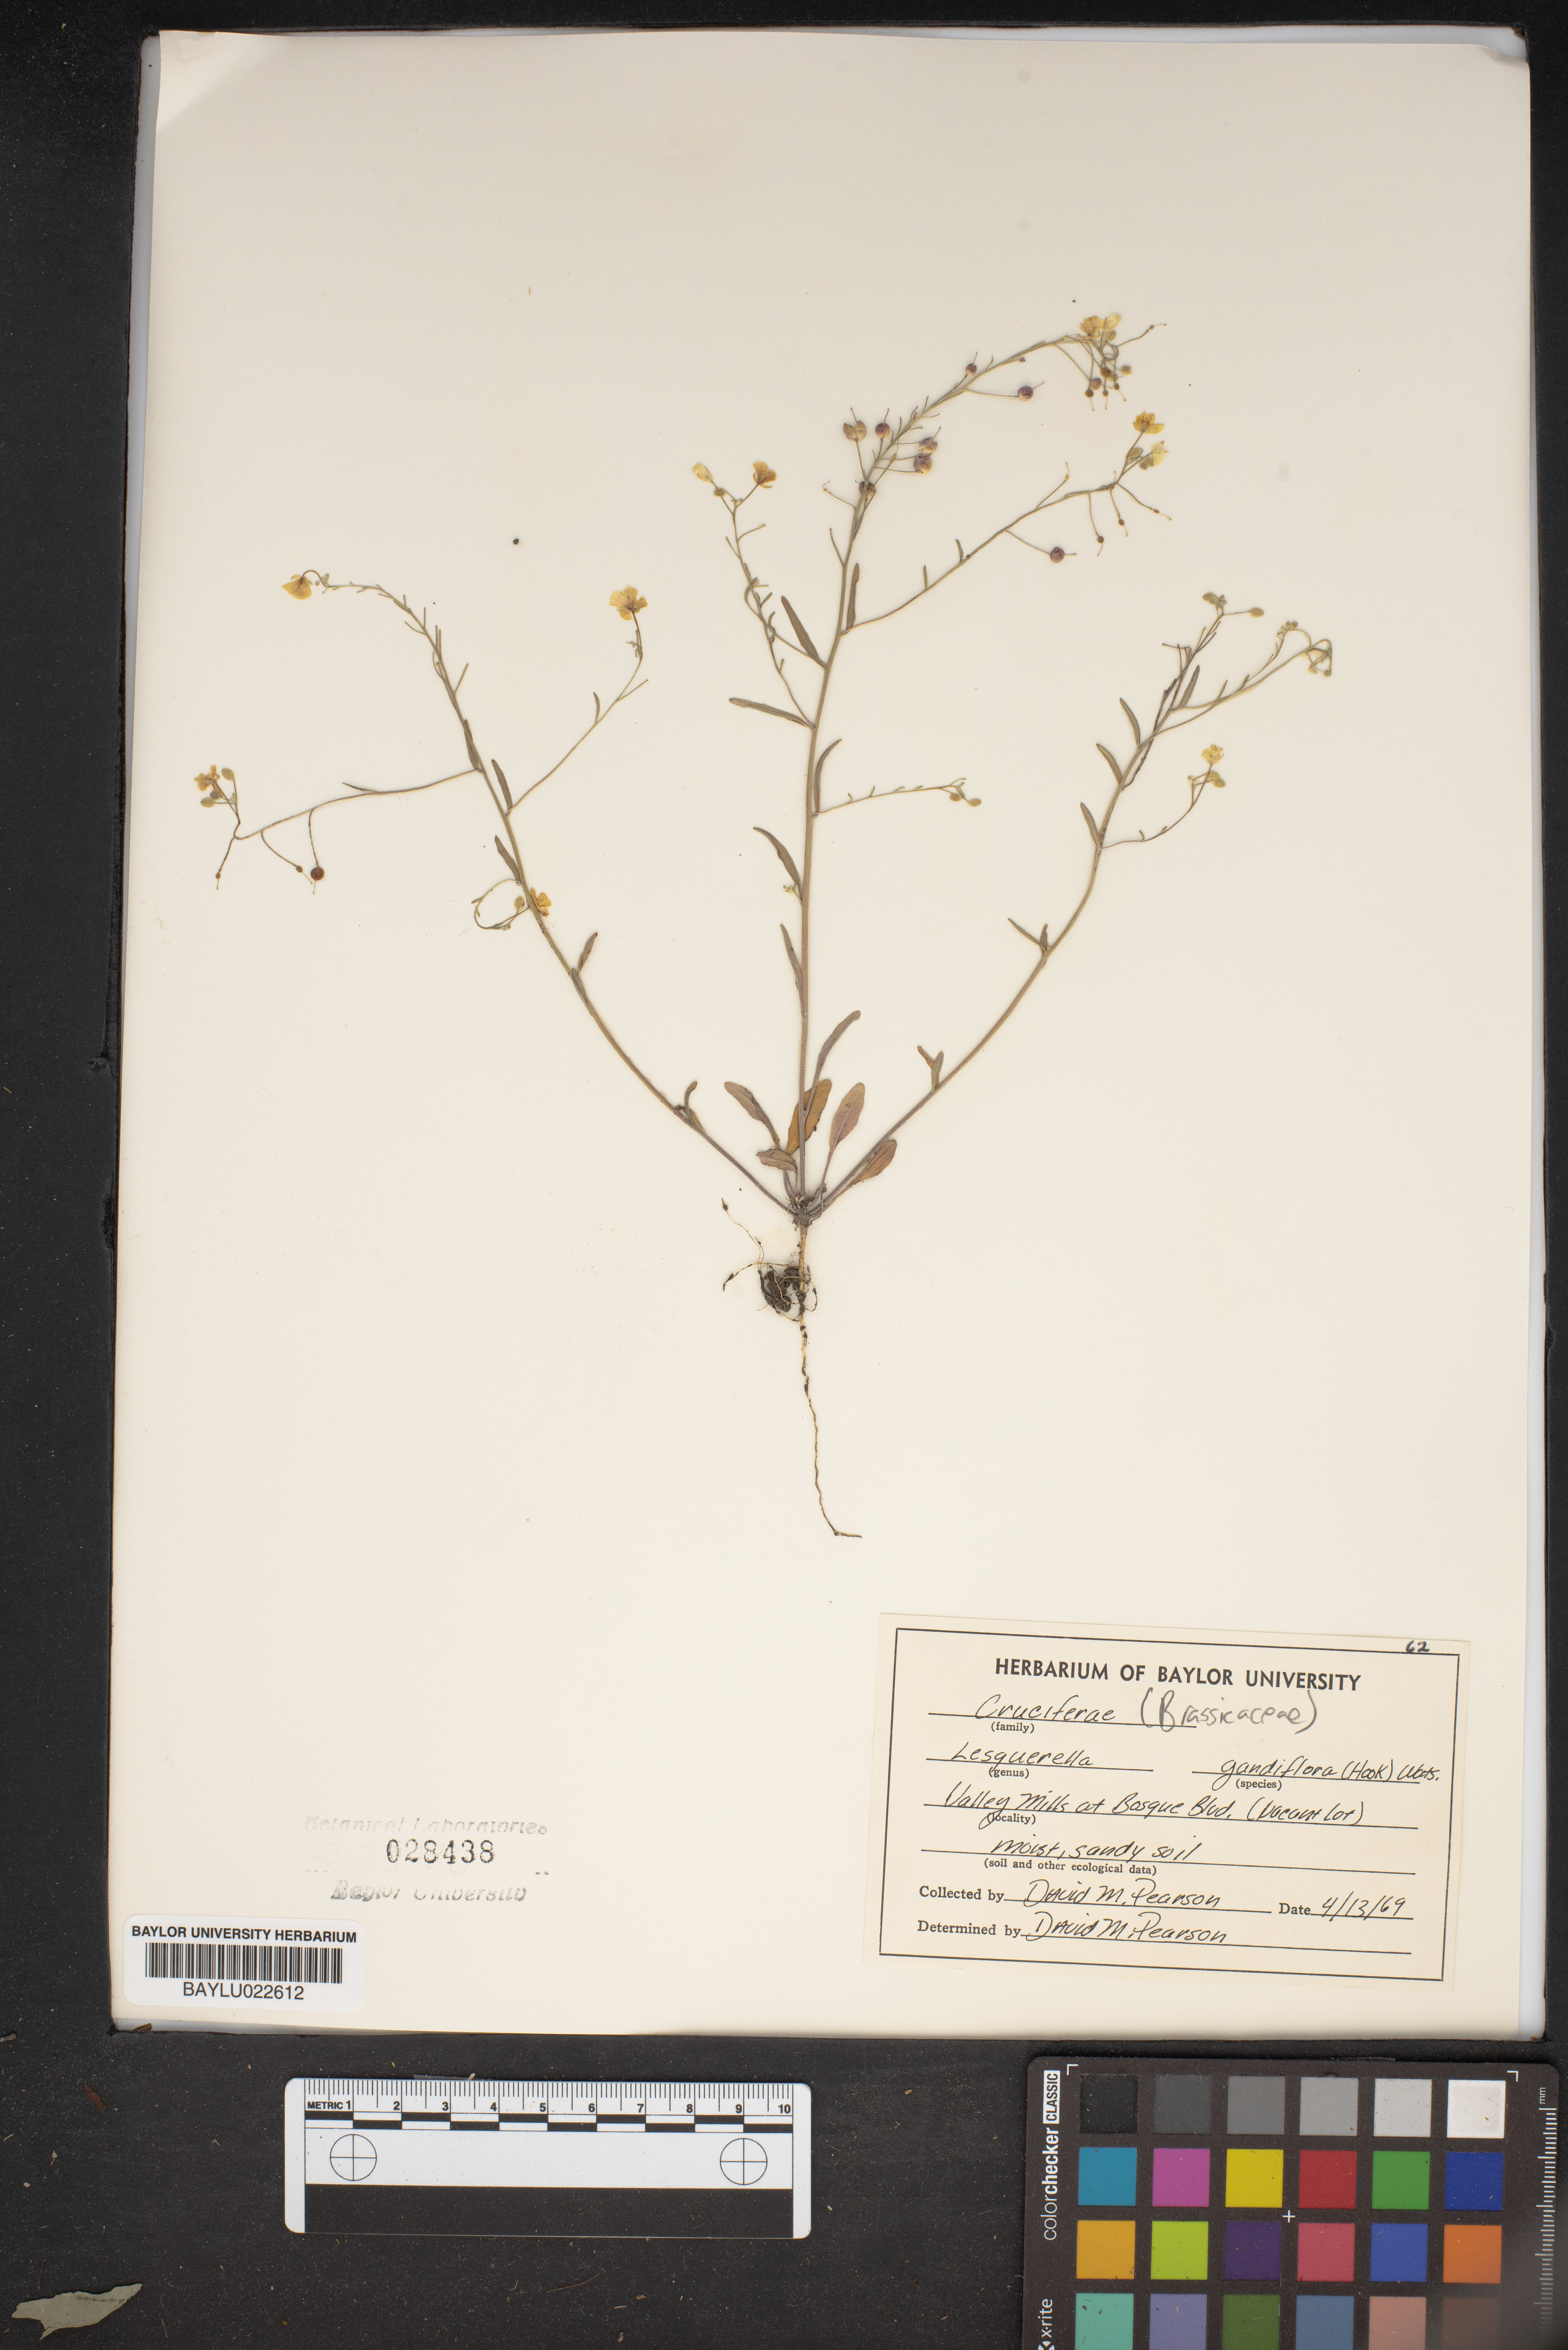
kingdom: Plantae
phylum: Tracheophyta
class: Magnoliopsida
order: Brassicales
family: Brassicaceae
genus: Paysonia
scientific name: Paysonia grandiflora
